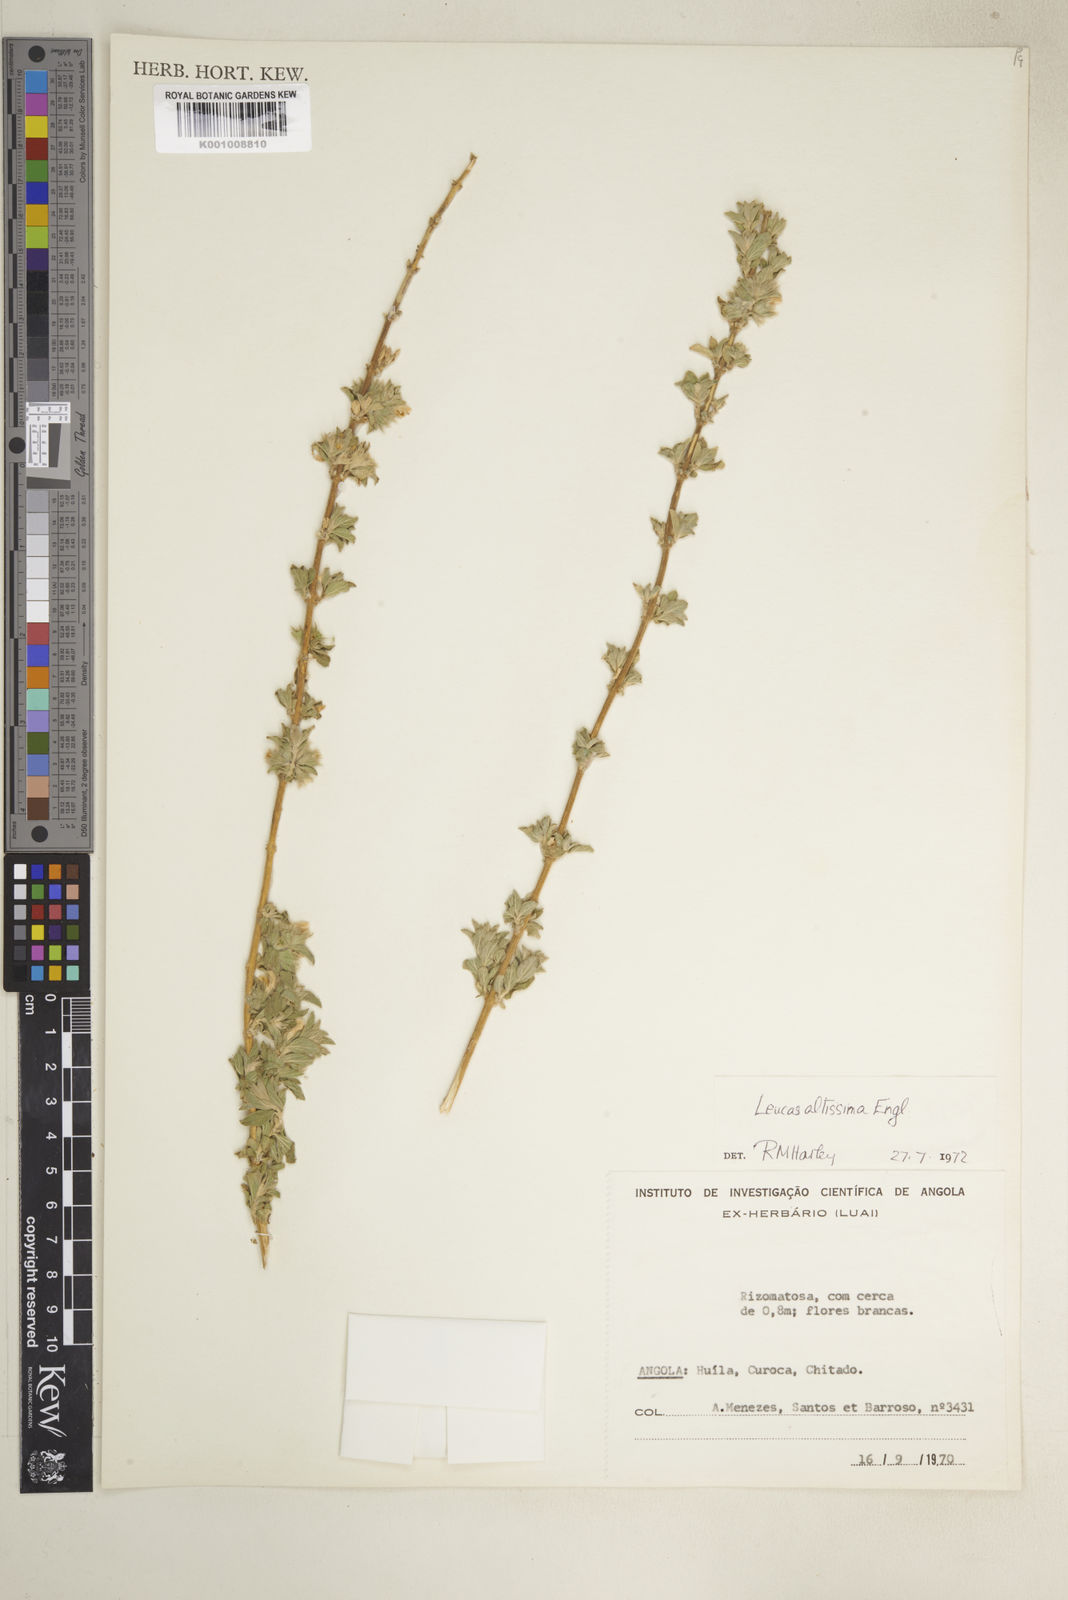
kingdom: Plantae
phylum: Tracheophyta
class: Magnoliopsida
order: Lamiales
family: Lamiaceae
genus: Leucas
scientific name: Leucas pechuelii
